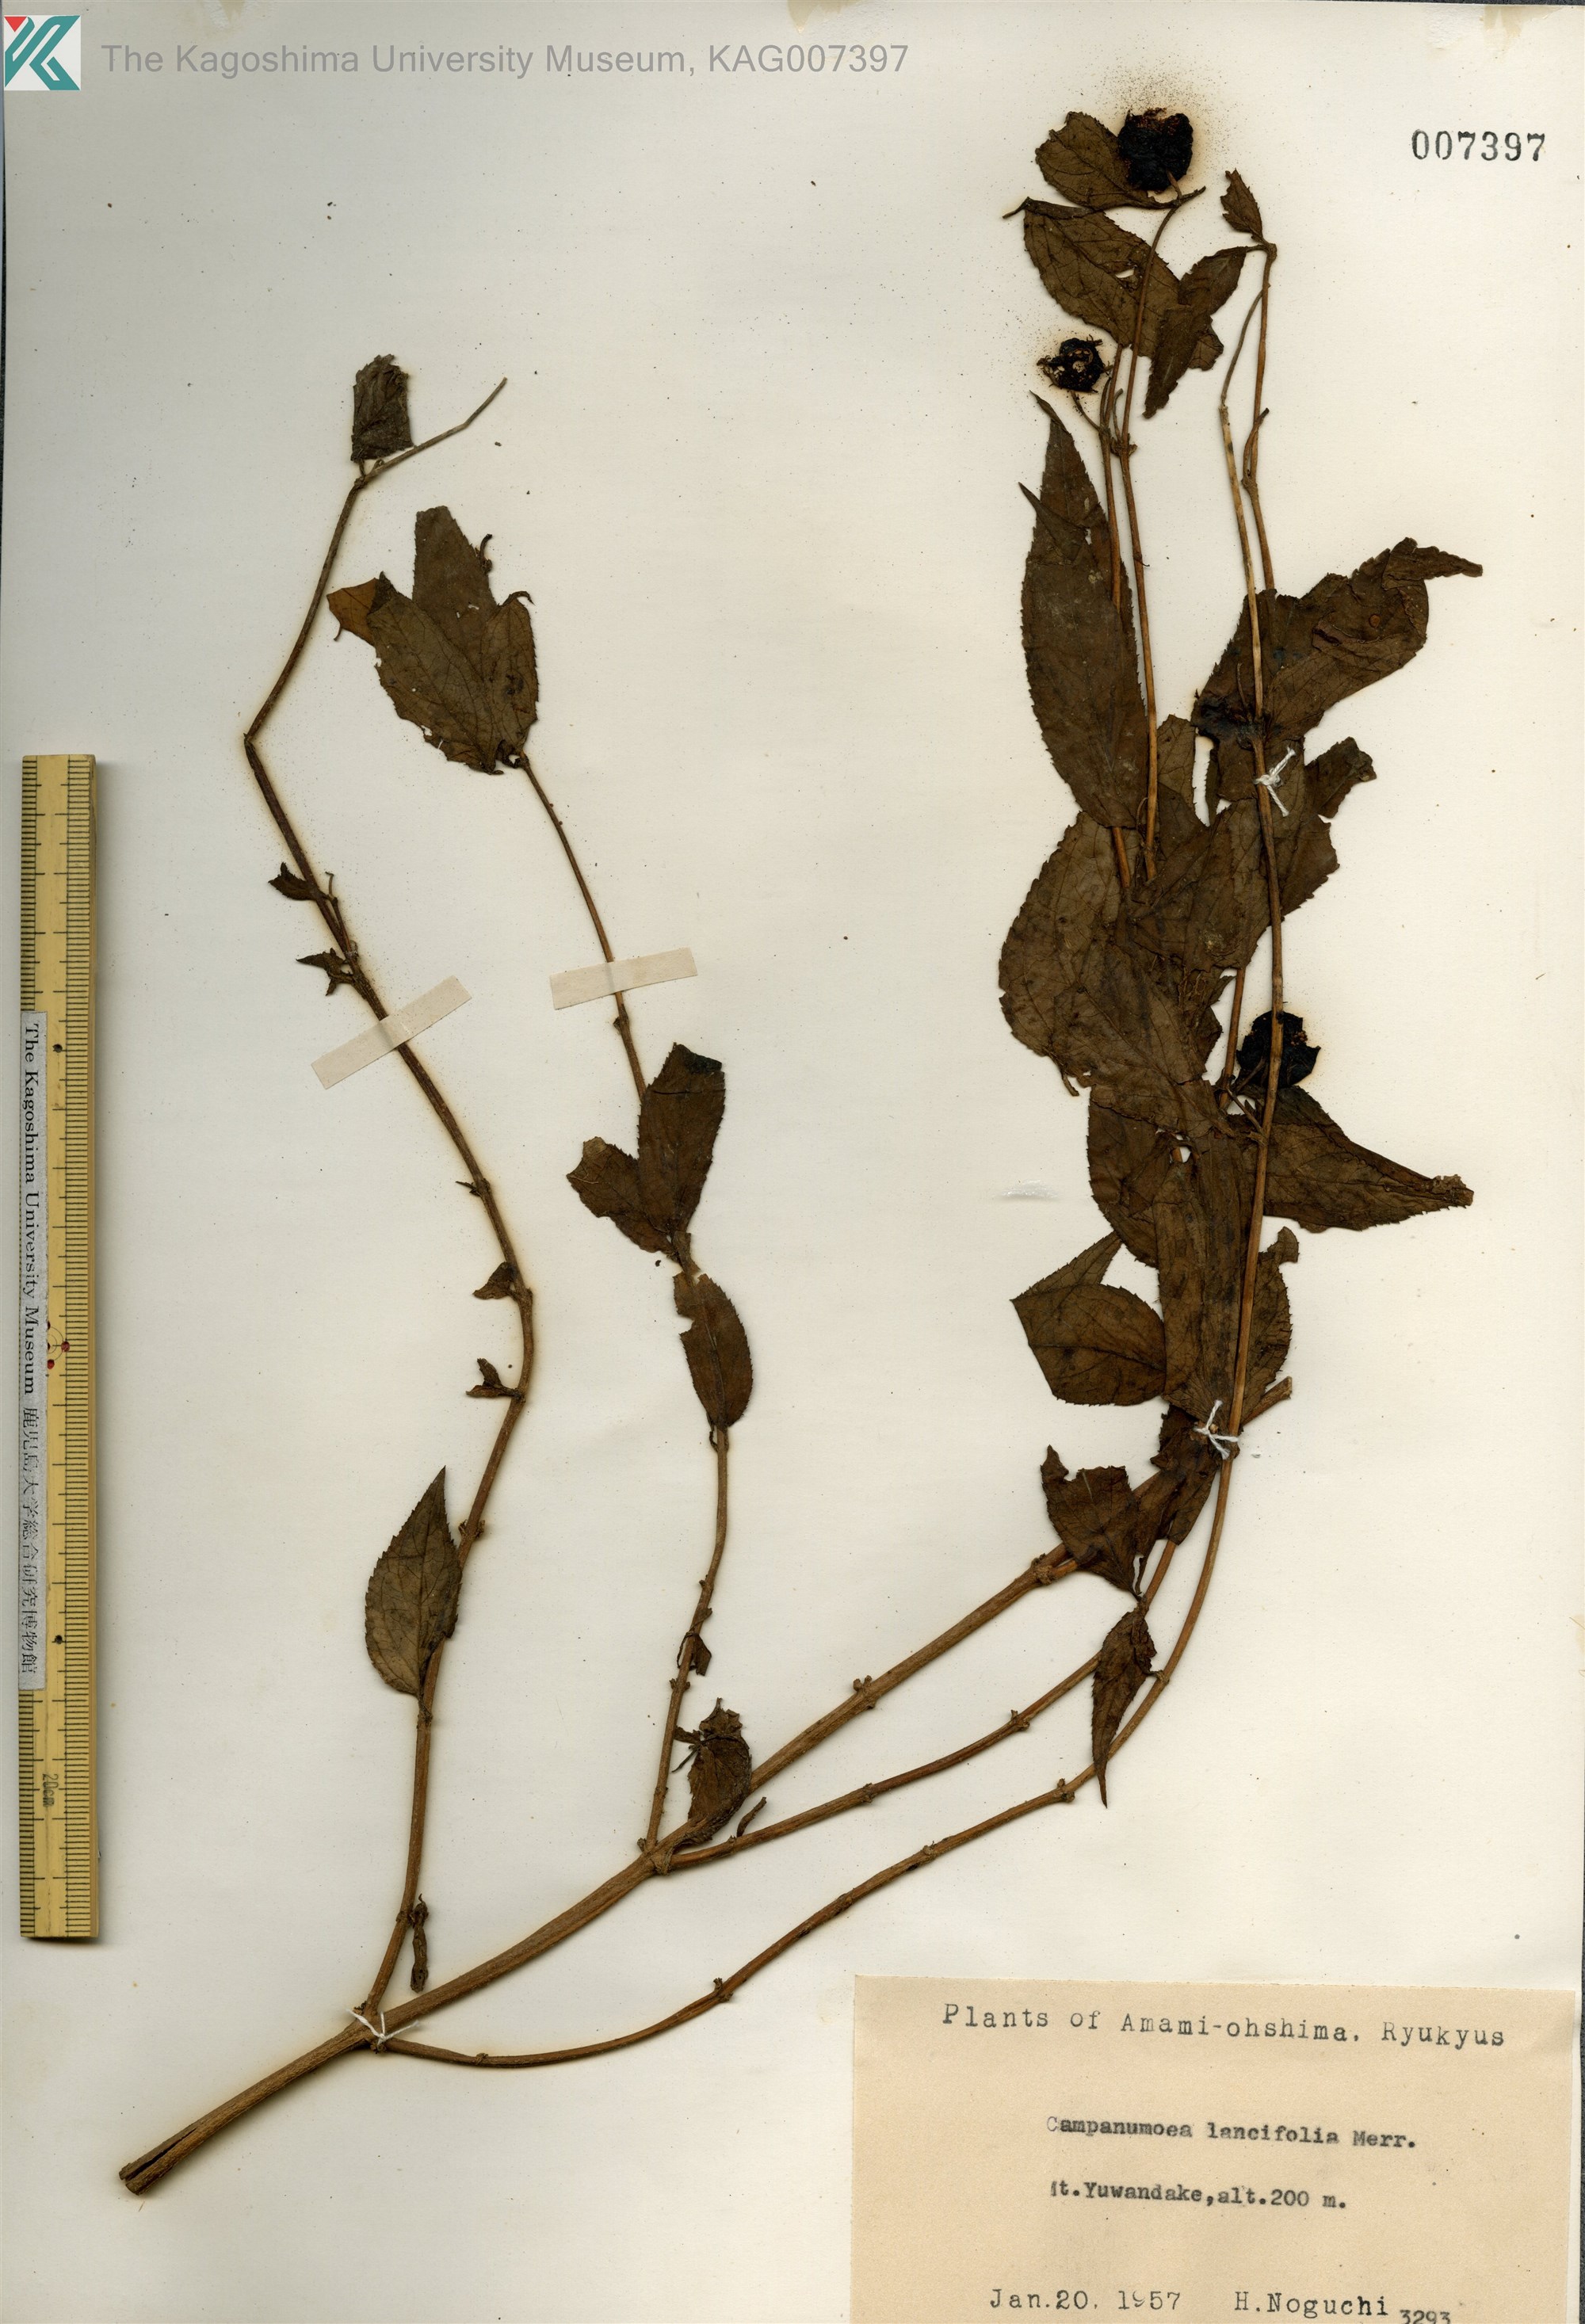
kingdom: Plantae
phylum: Tracheophyta
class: Magnoliopsida
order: Asterales
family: Campanulaceae
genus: Cyclocodon
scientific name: Cyclocodon lancifolius
